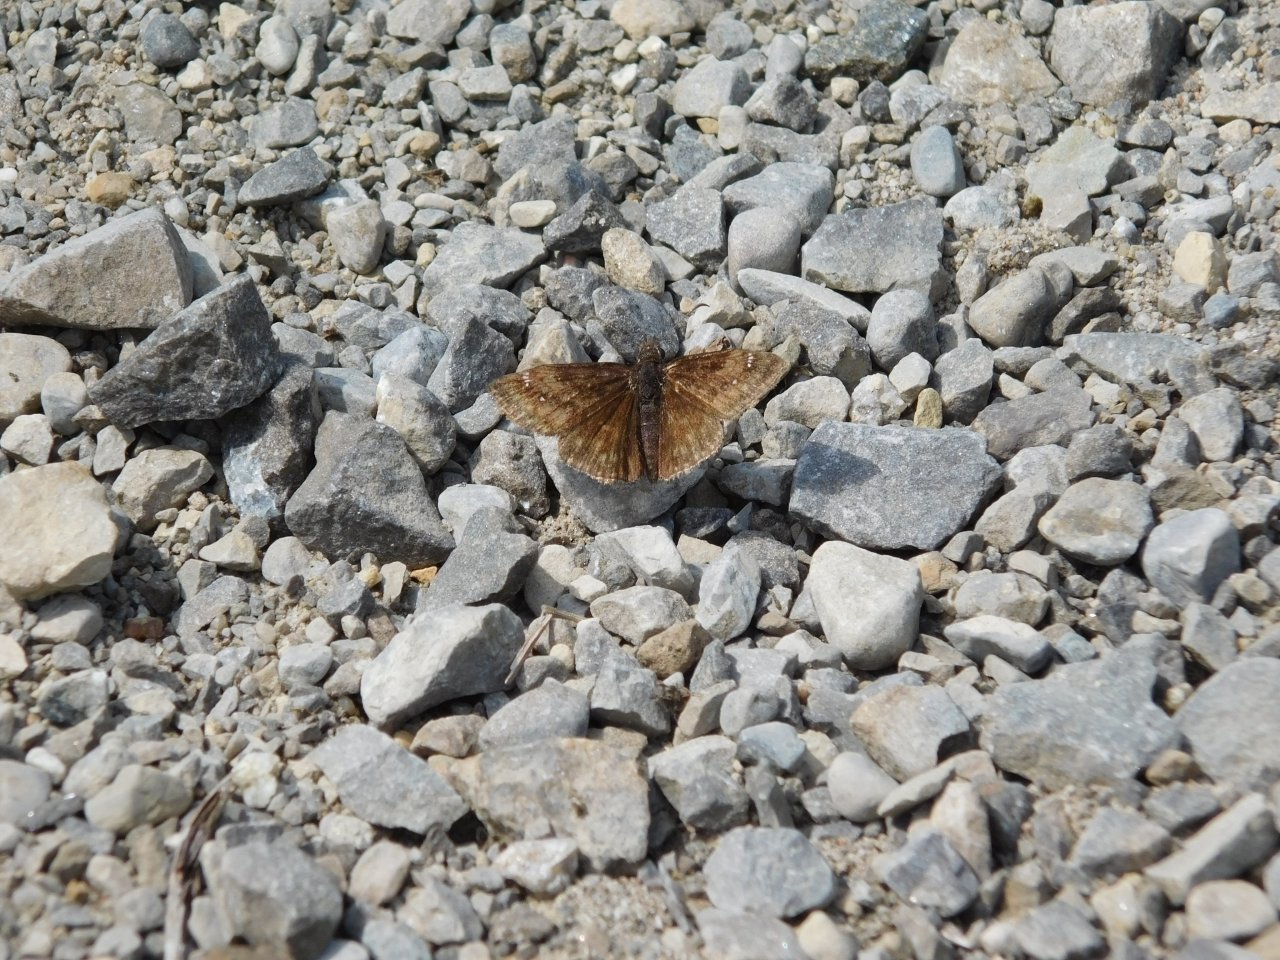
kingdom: Animalia
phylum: Arthropoda
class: Insecta
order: Lepidoptera
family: Hesperiidae
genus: Erynnis
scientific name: Erynnis
